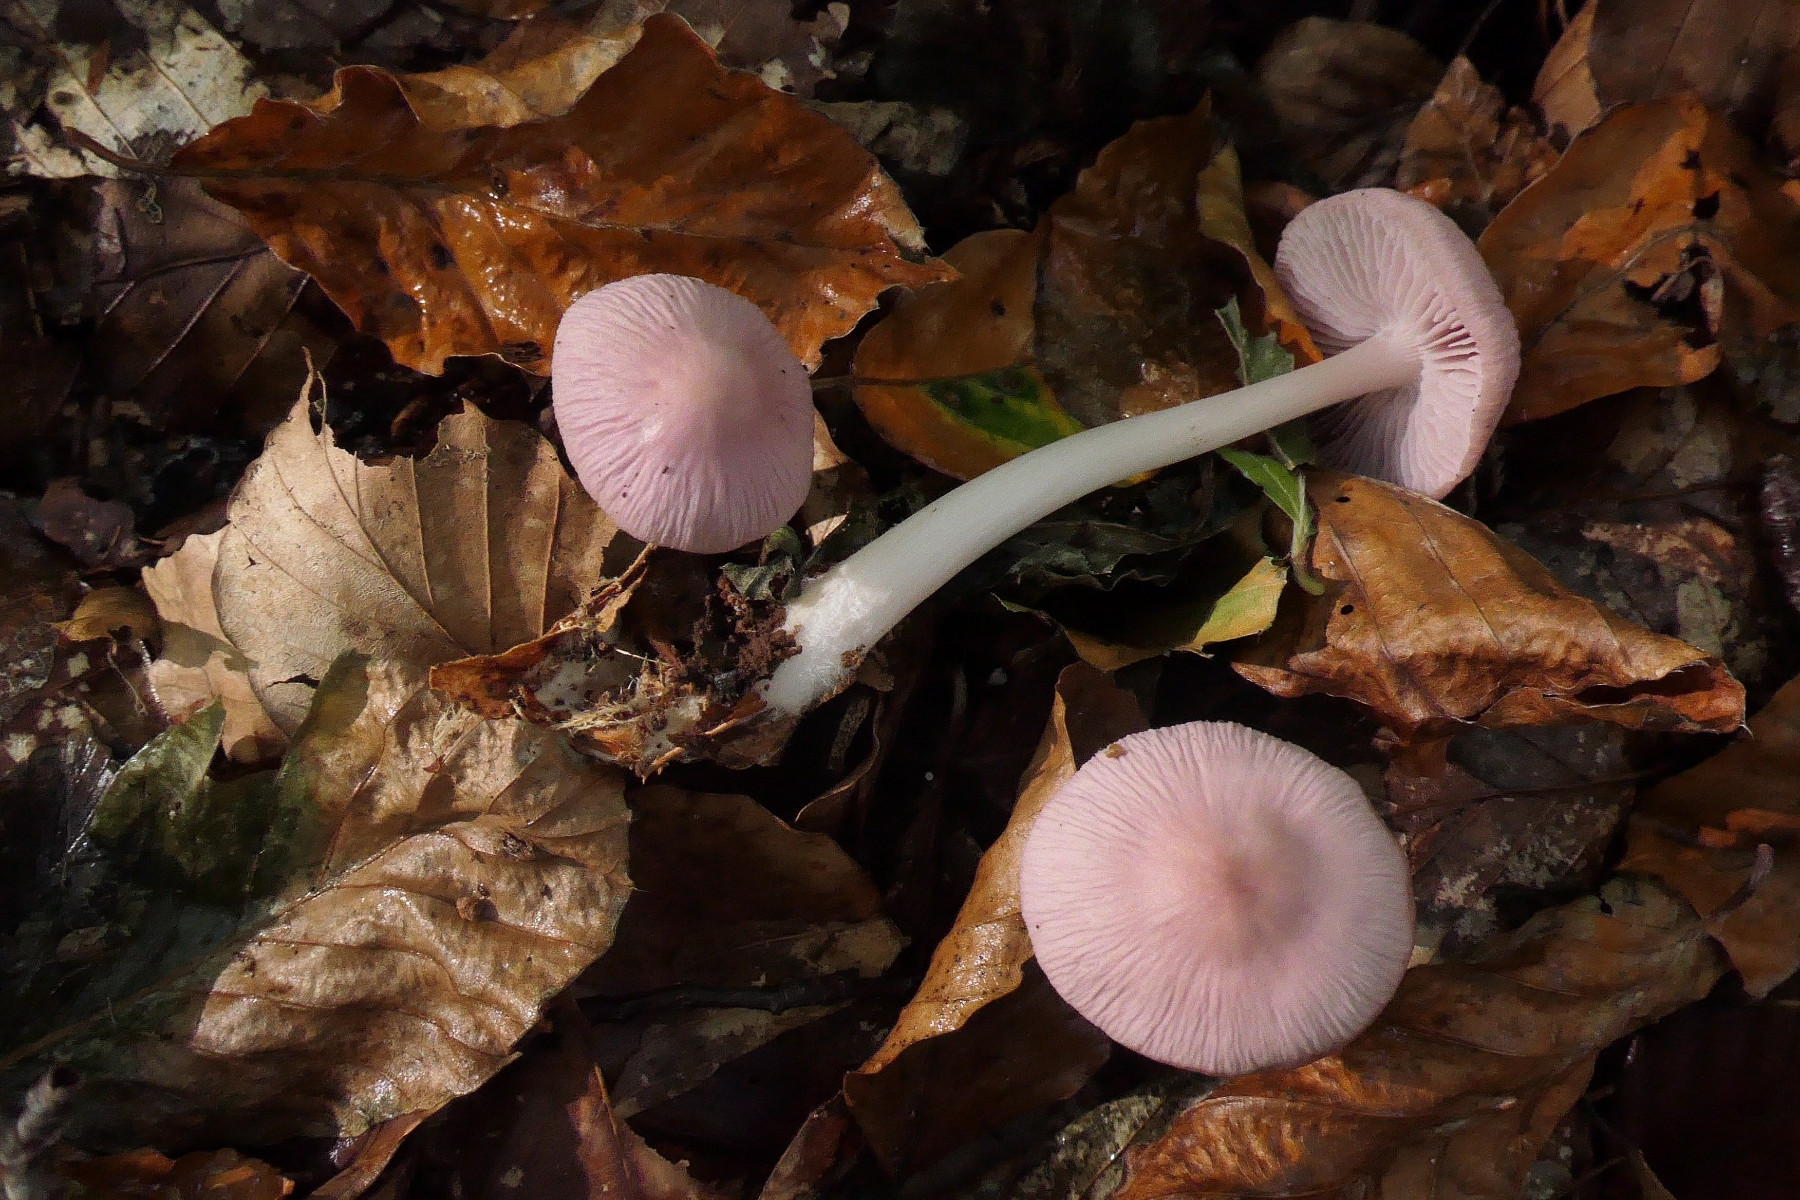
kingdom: Fungi
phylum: Basidiomycota
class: Agaricomycetes
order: Agaricales
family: Mycenaceae
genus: Mycena
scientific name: Mycena rosea
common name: rosa huesvamp
